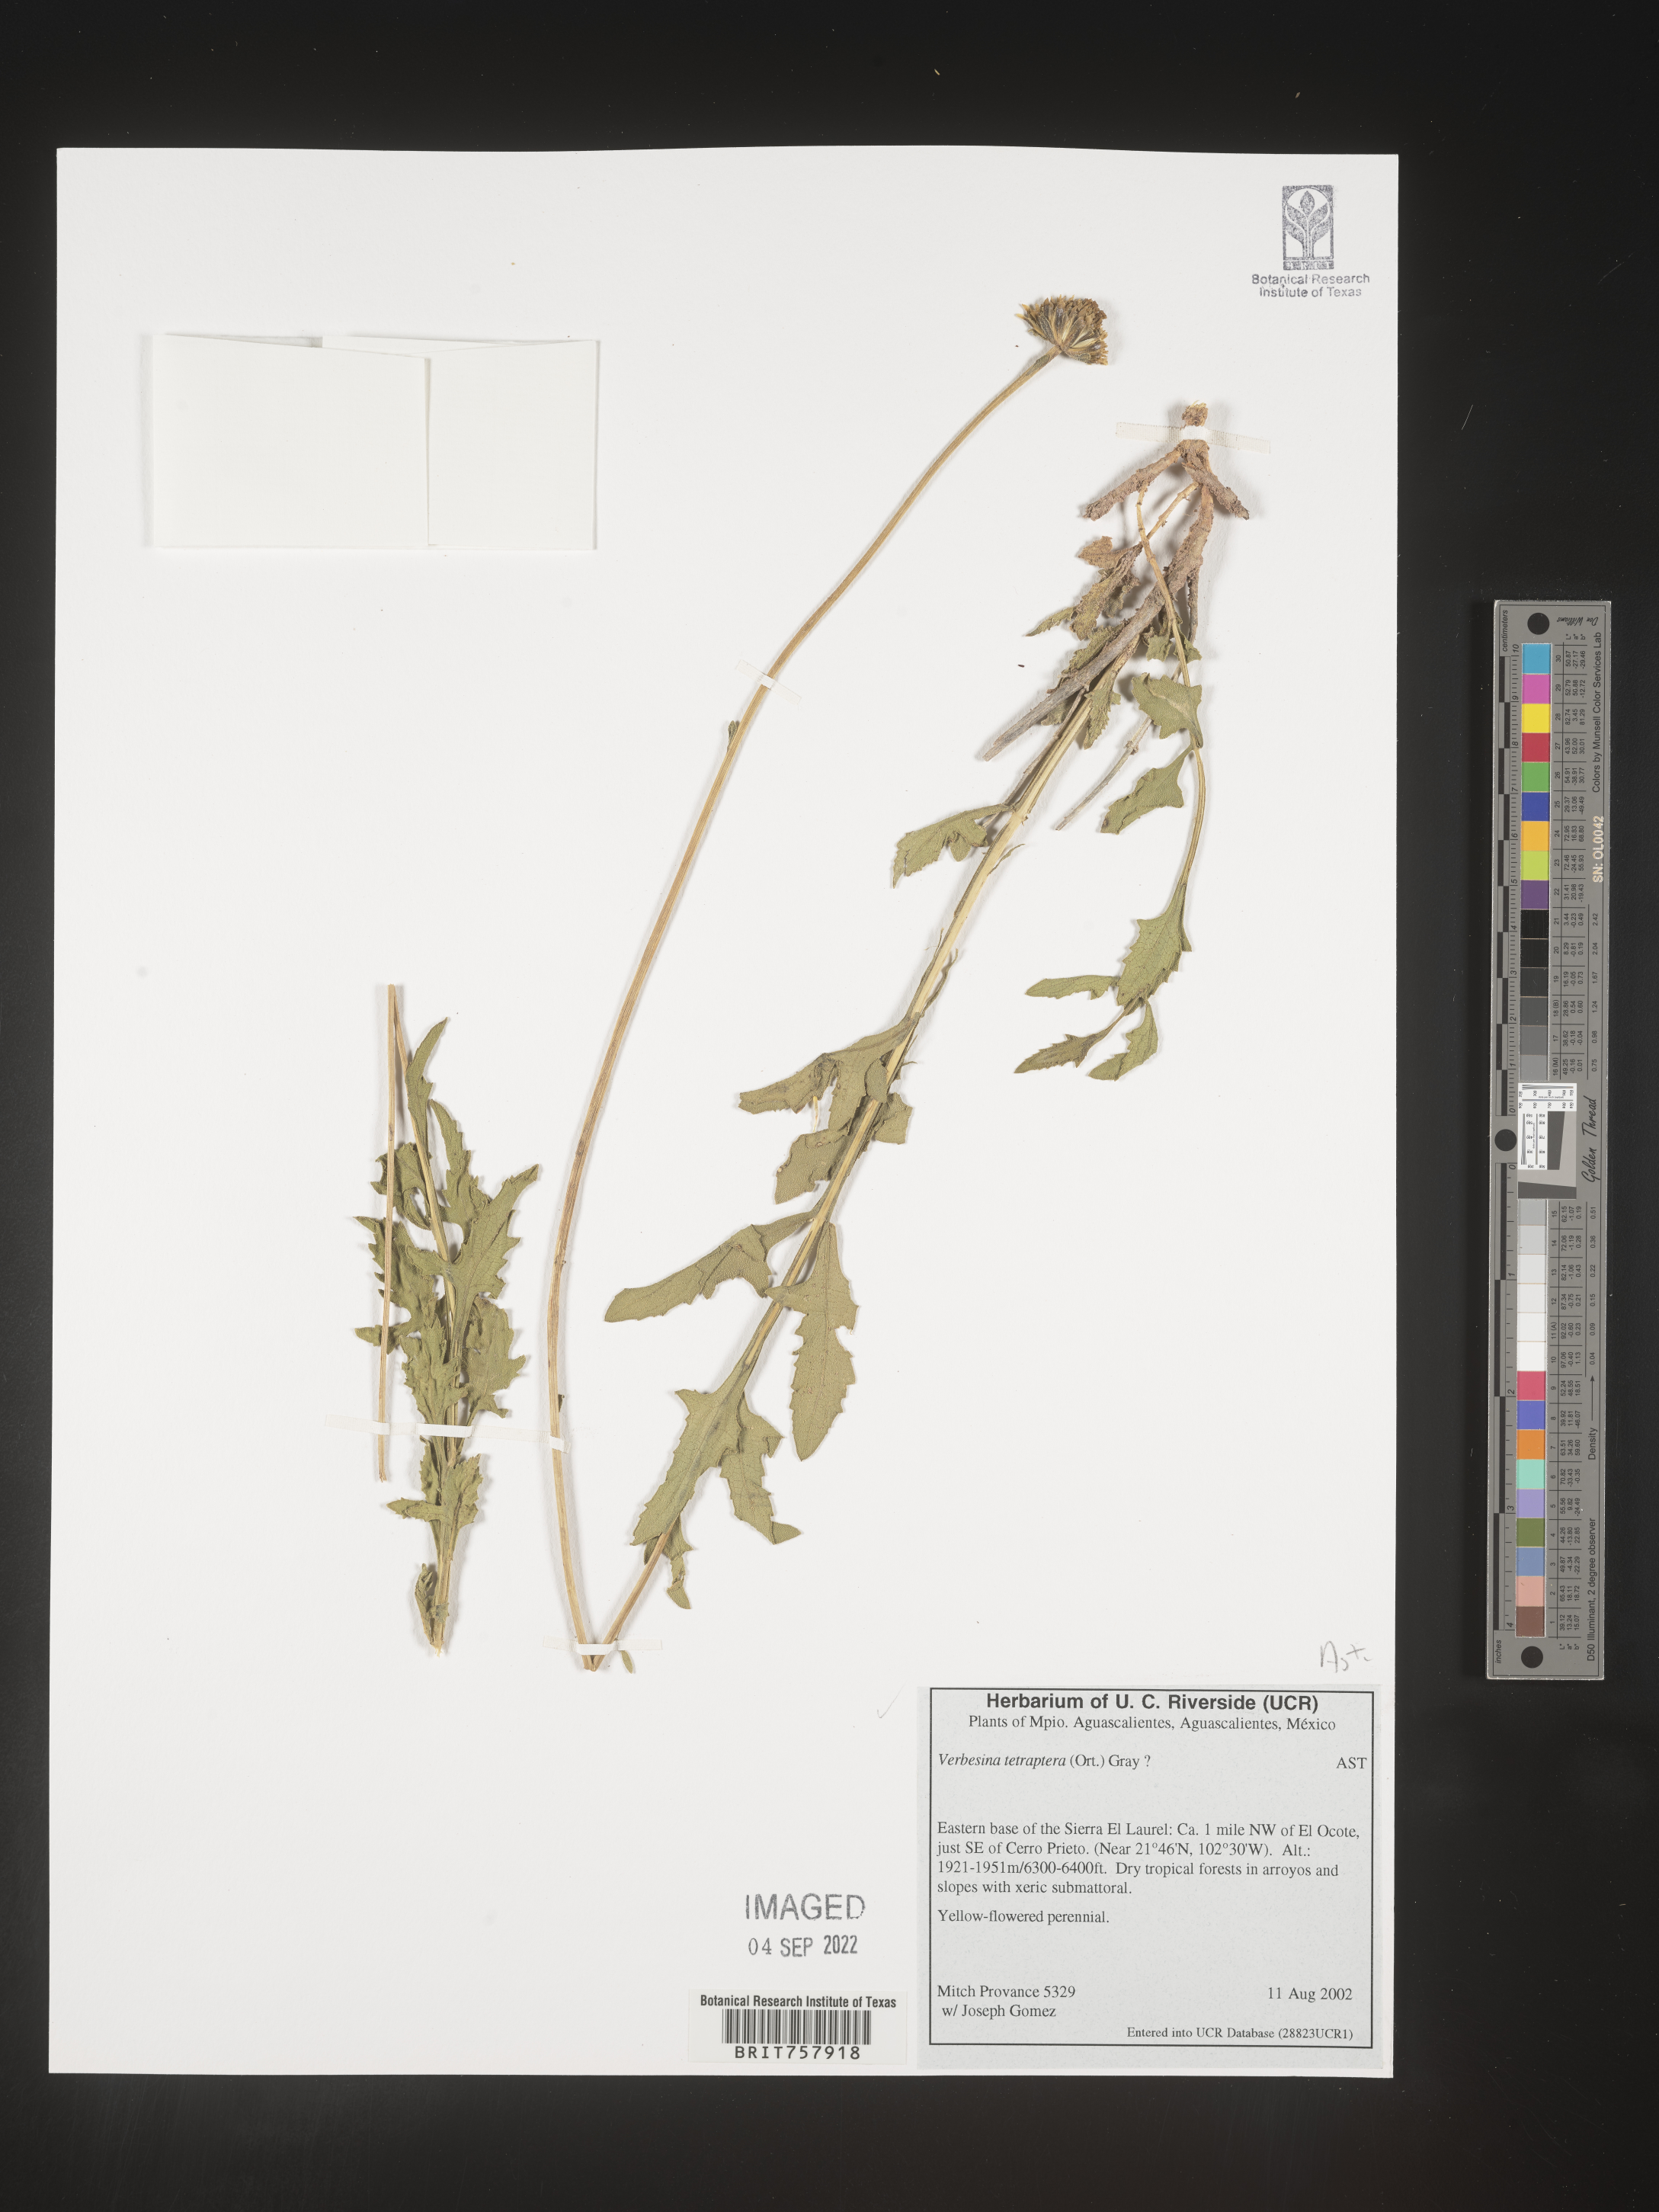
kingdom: Plantae
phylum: Tracheophyta
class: Magnoliopsida
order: Asterales
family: Asteraceae
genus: Verbesina
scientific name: Verbesina
